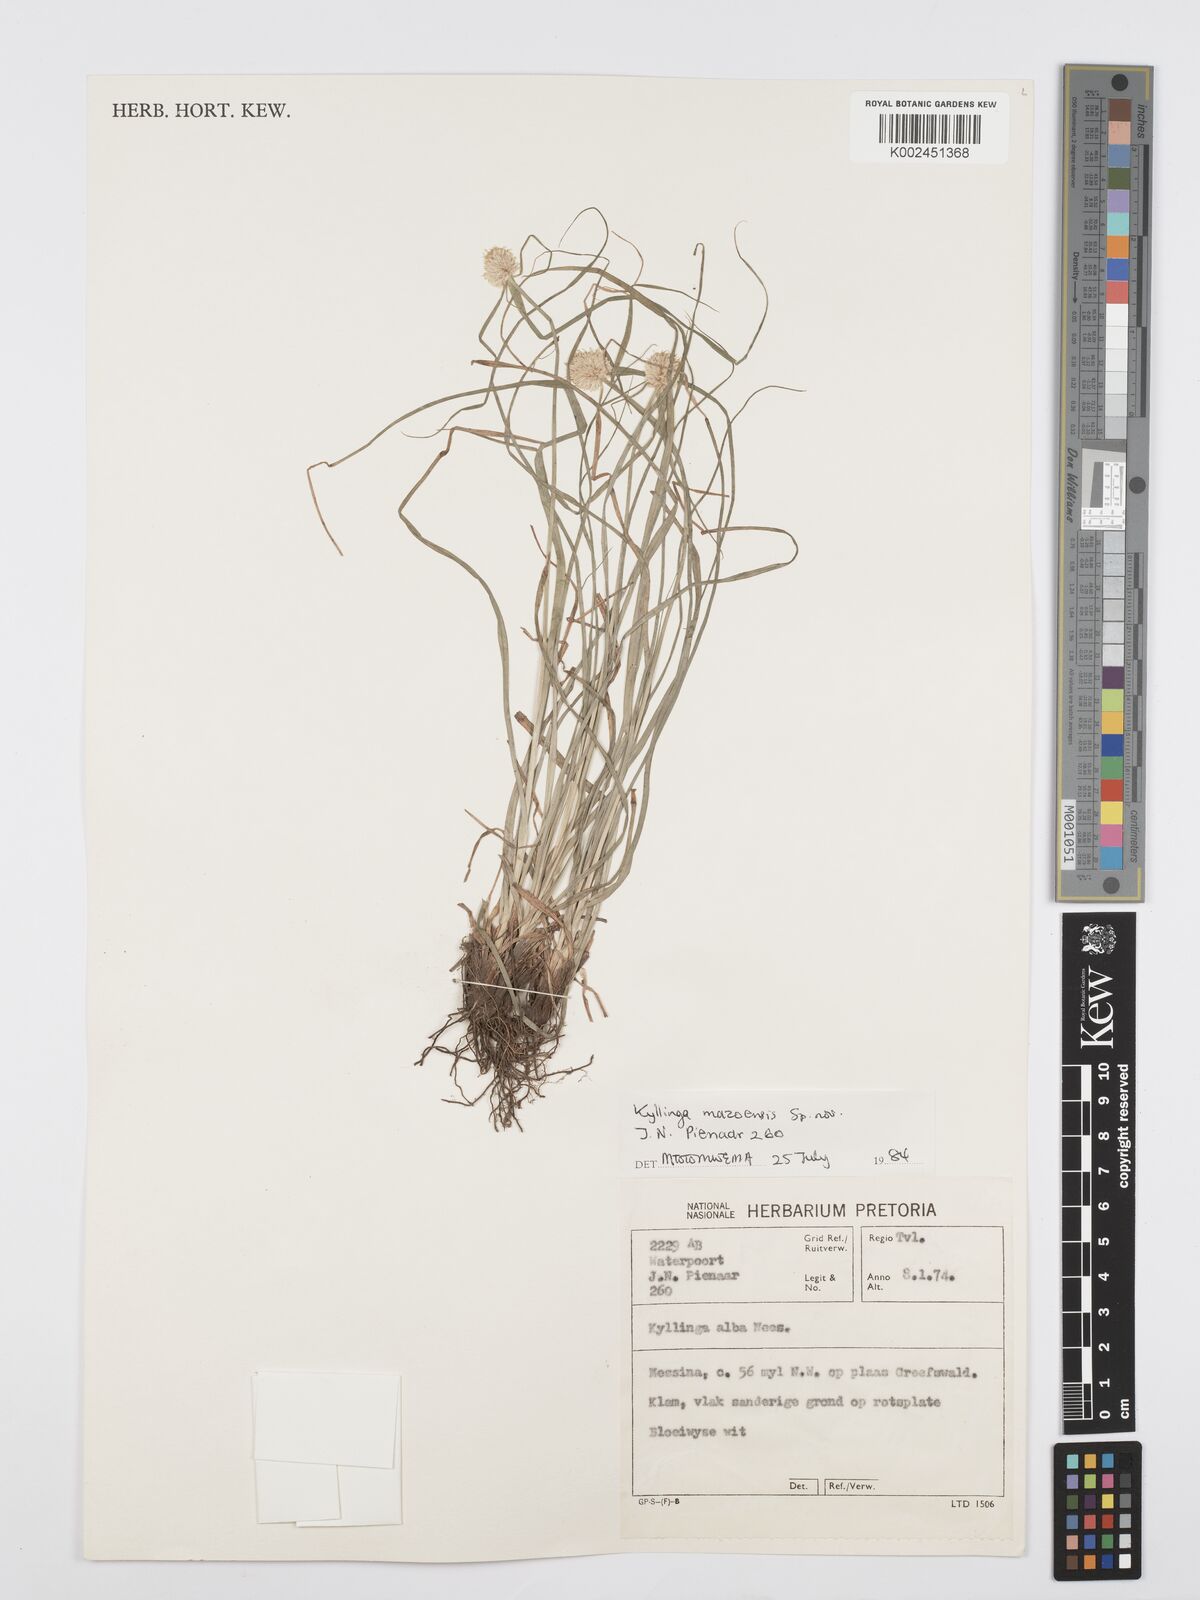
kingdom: Plantae
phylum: Tracheophyta
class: Liliopsida
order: Poales
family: Cyperaceae
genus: Cyperus
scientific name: Cyperus
